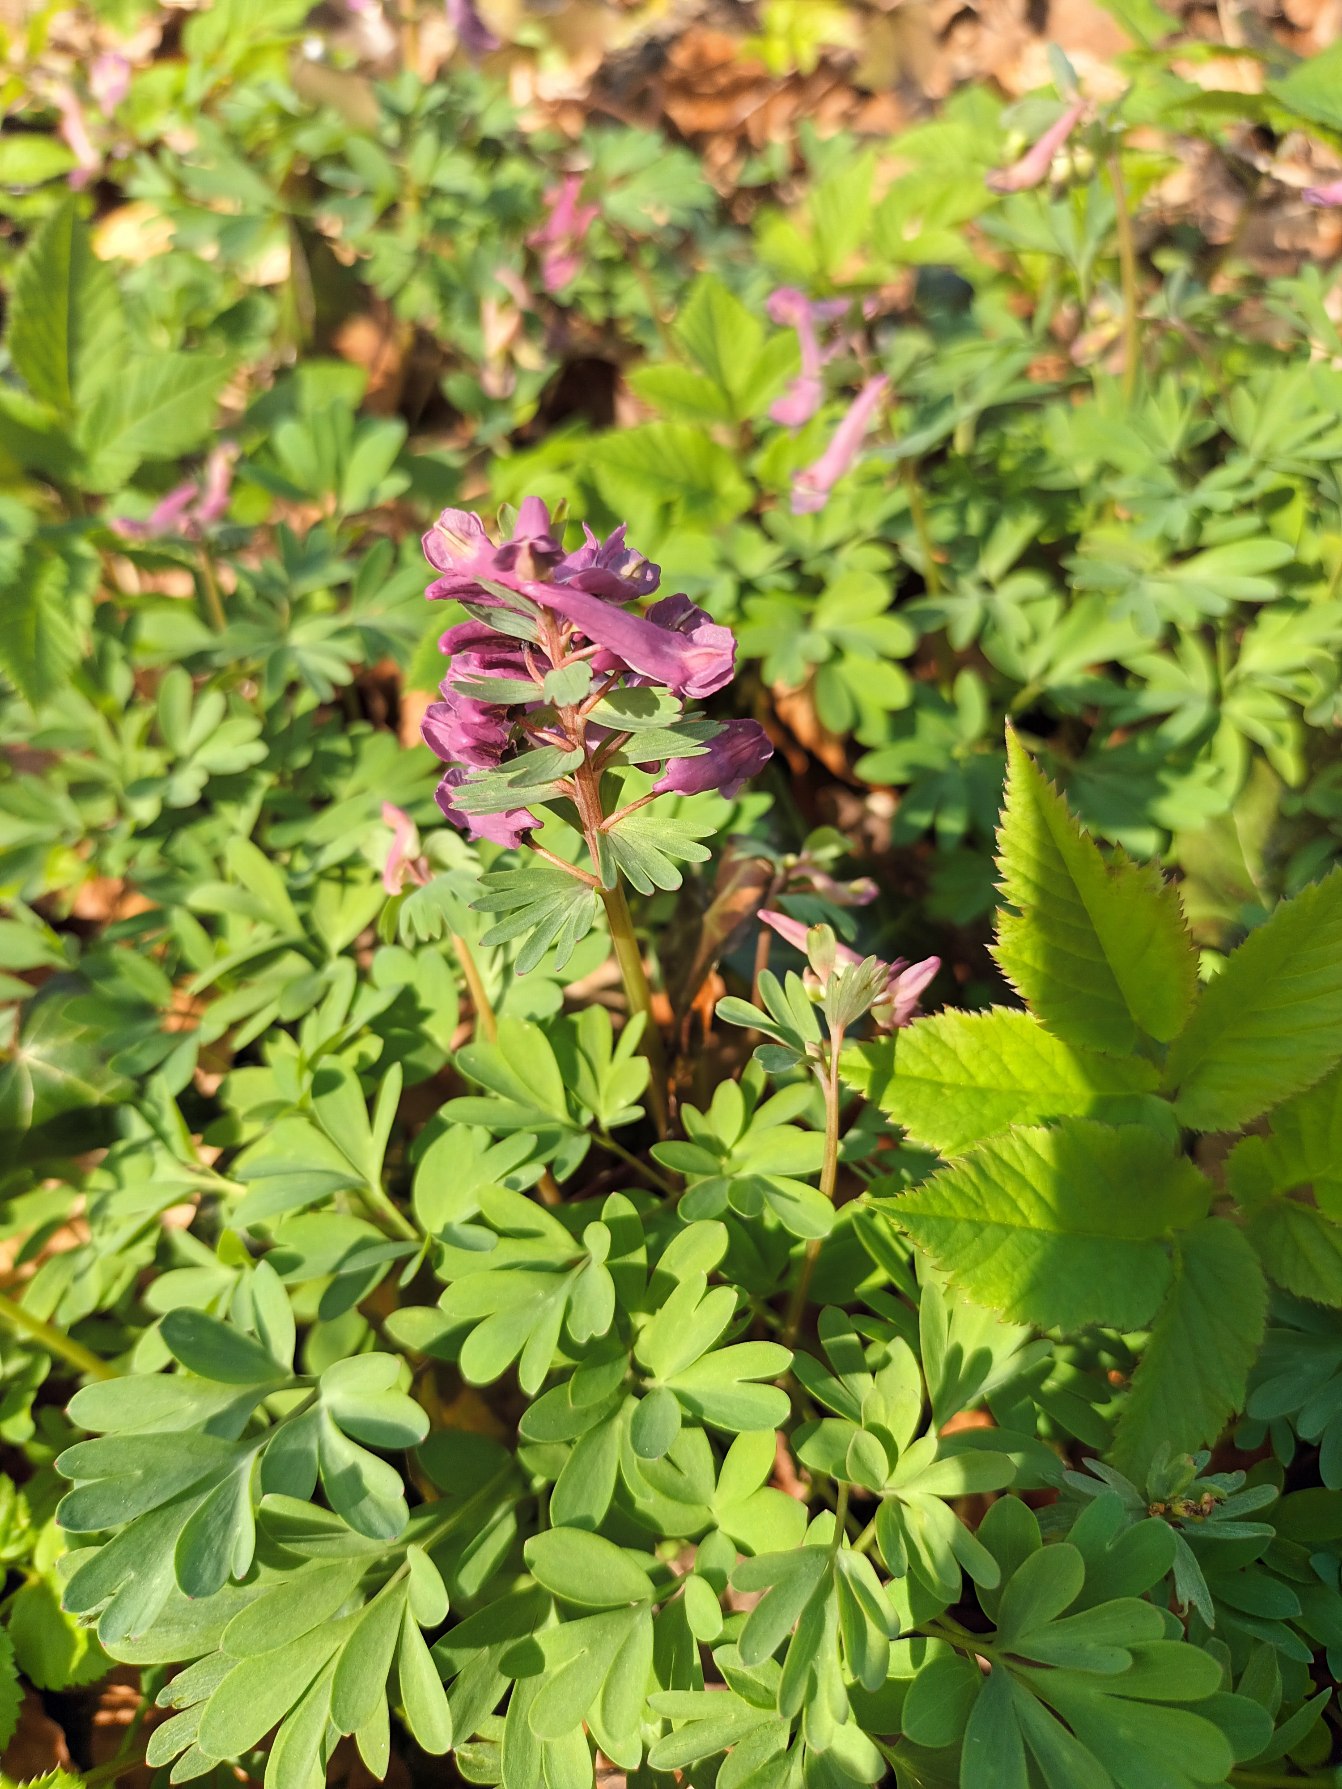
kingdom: Plantae
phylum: Tracheophyta
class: Magnoliopsida
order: Ranunculales
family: Papaveraceae
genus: Corydalis
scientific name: Corydalis solida
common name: Langstilket lærkespore
